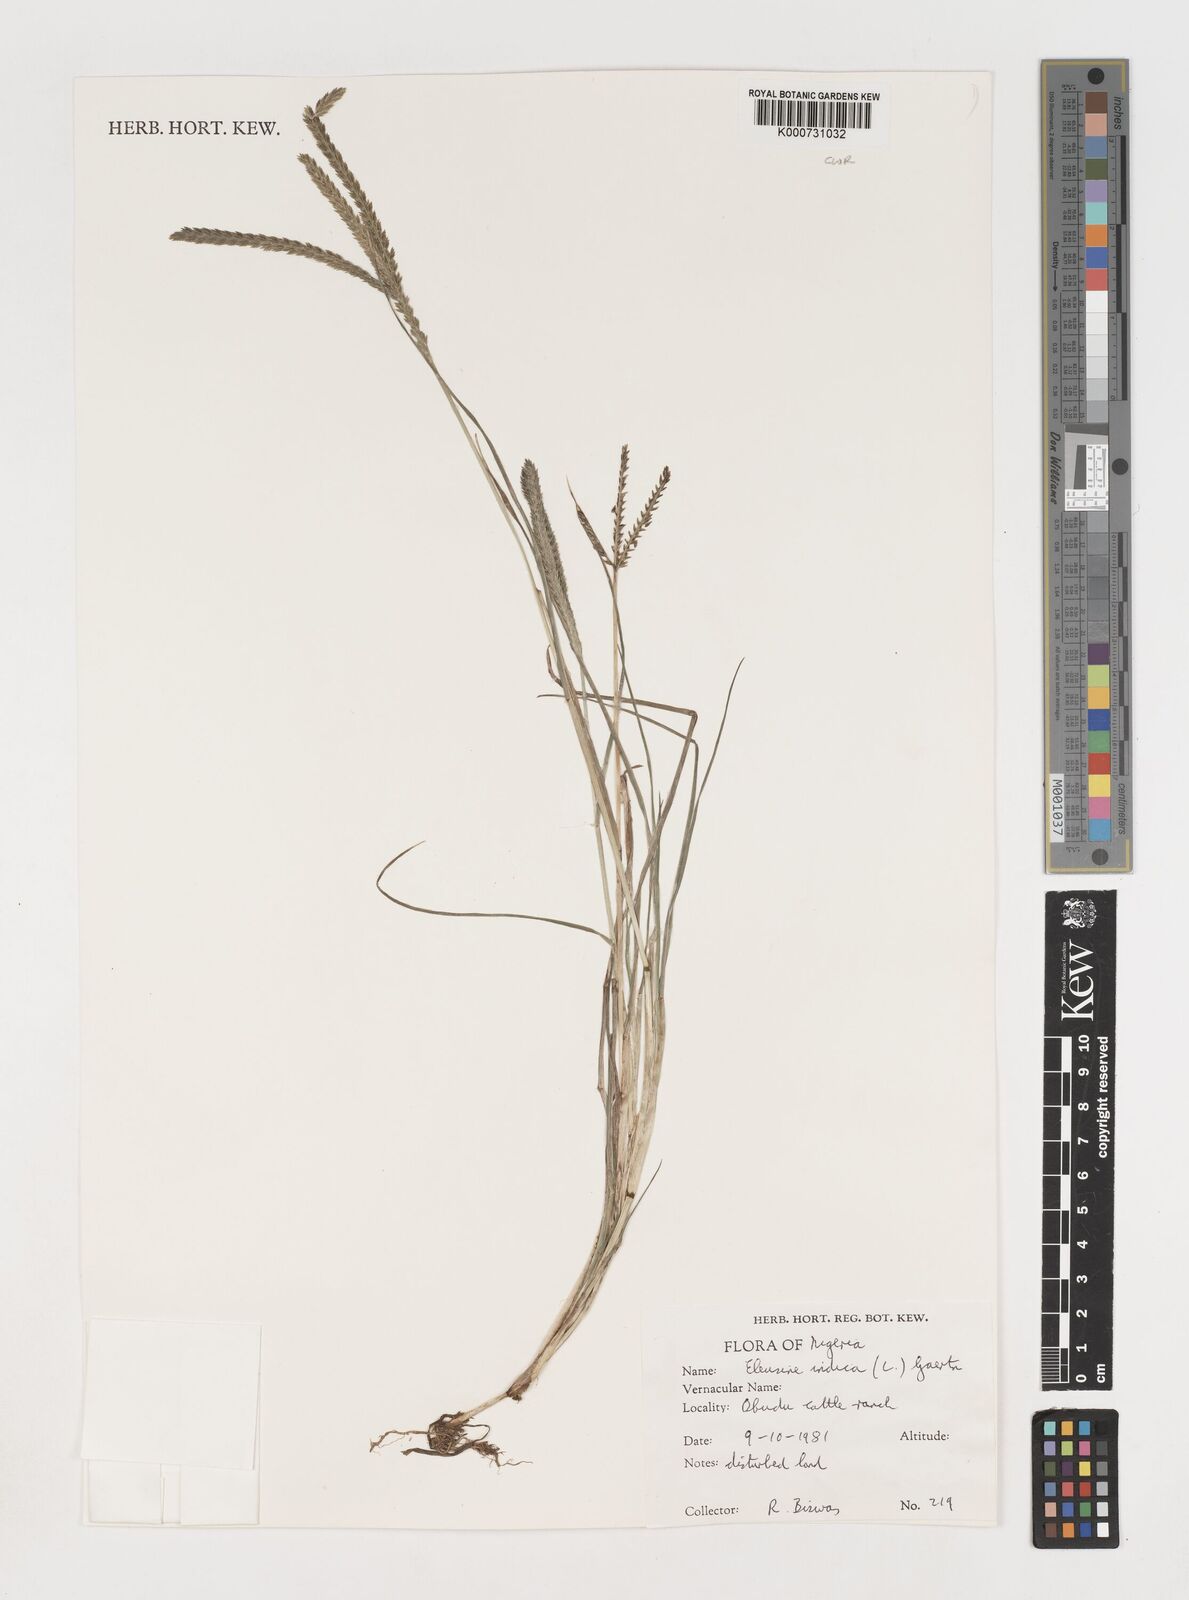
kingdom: Plantae
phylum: Tracheophyta
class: Liliopsida
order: Poales
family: Poaceae
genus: Eleusine
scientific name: Eleusine indica
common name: Yard-grass
